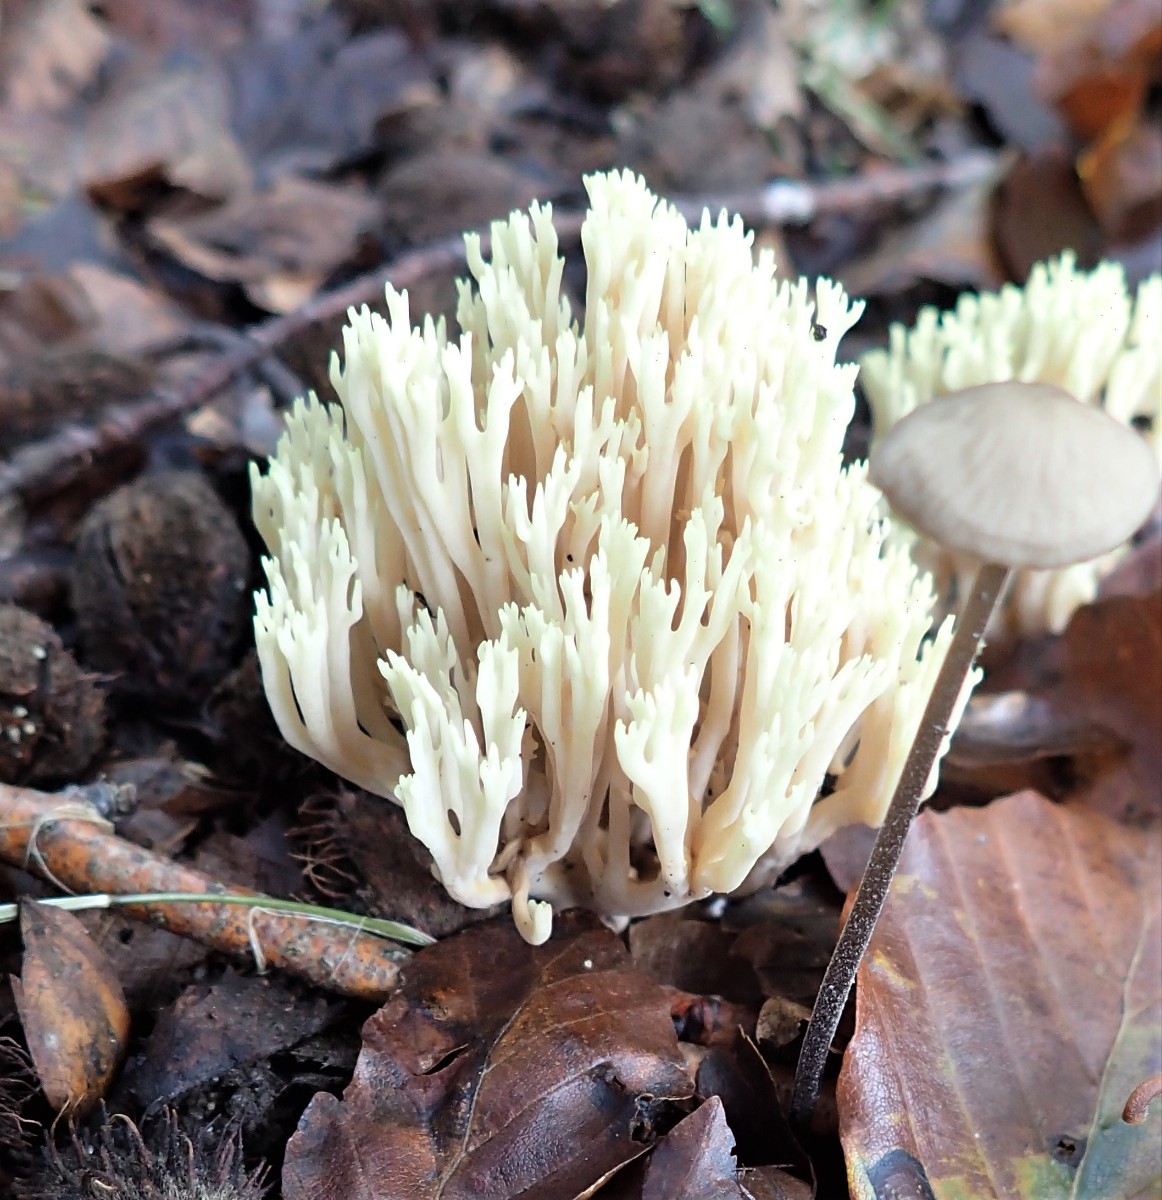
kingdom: Fungi
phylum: Basidiomycota
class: Agaricomycetes
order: Gomphales
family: Gomphaceae
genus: Ramaria
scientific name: Ramaria stricta
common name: rank koralsvamp
